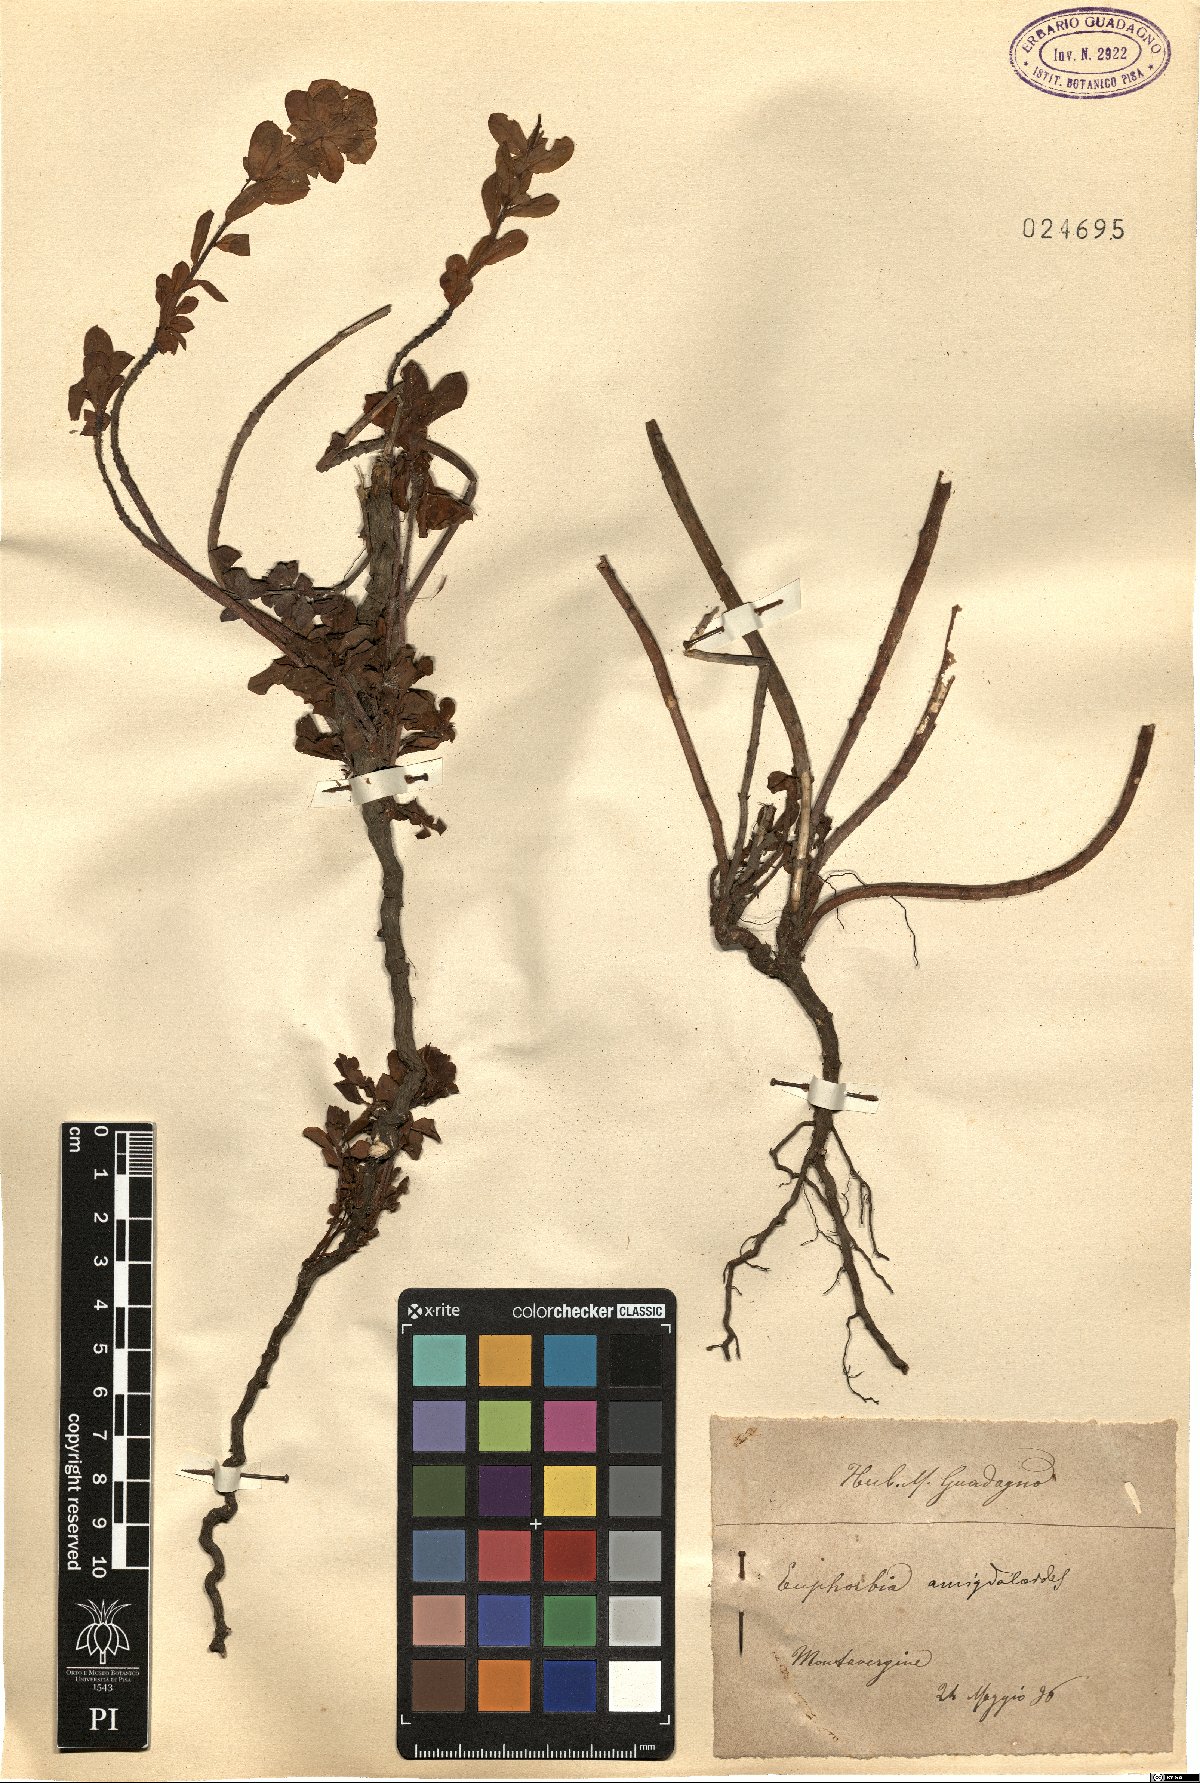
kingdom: Plantae
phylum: Tracheophyta
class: Magnoliopsida
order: Malpighiales
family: Euphorbiaceae
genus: Euphorbia
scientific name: Euphorbia amygdaloides
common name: Wood spurge
